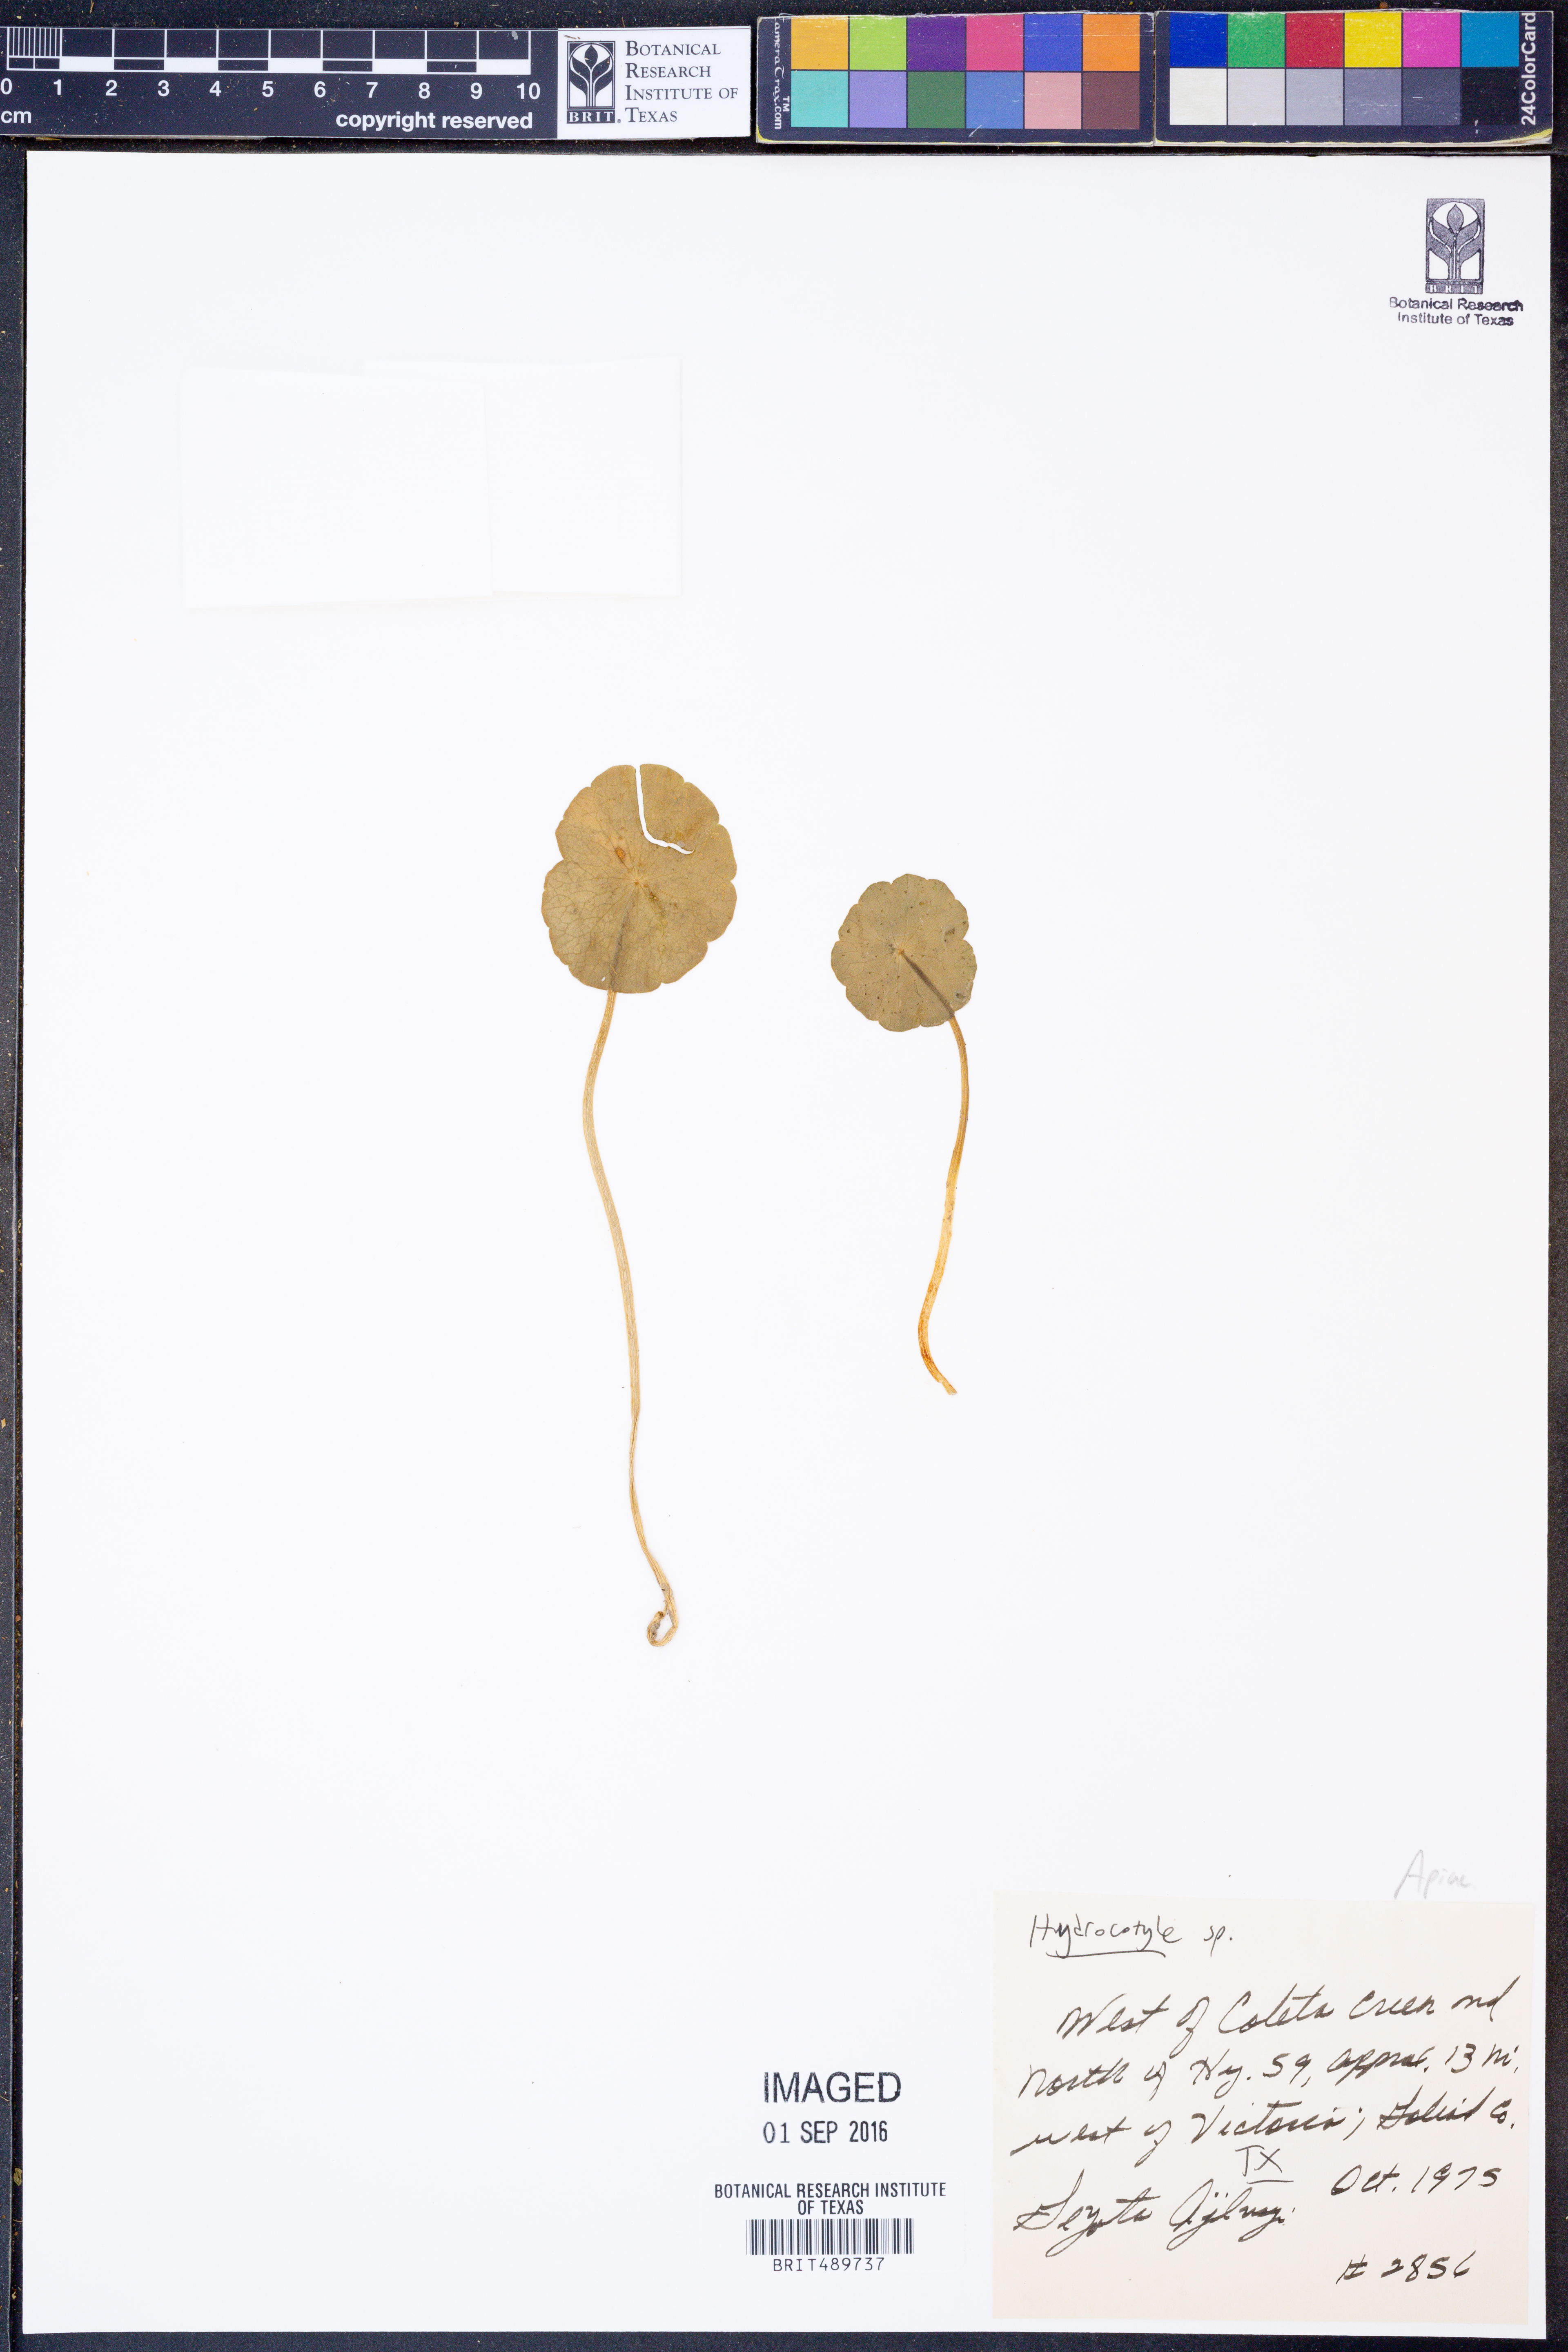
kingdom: Plantae
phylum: Tracheophyta
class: Magnoliopsida
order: Apiales
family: Araliaceae
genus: Hydrocotyle
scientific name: Hydrocotyle
